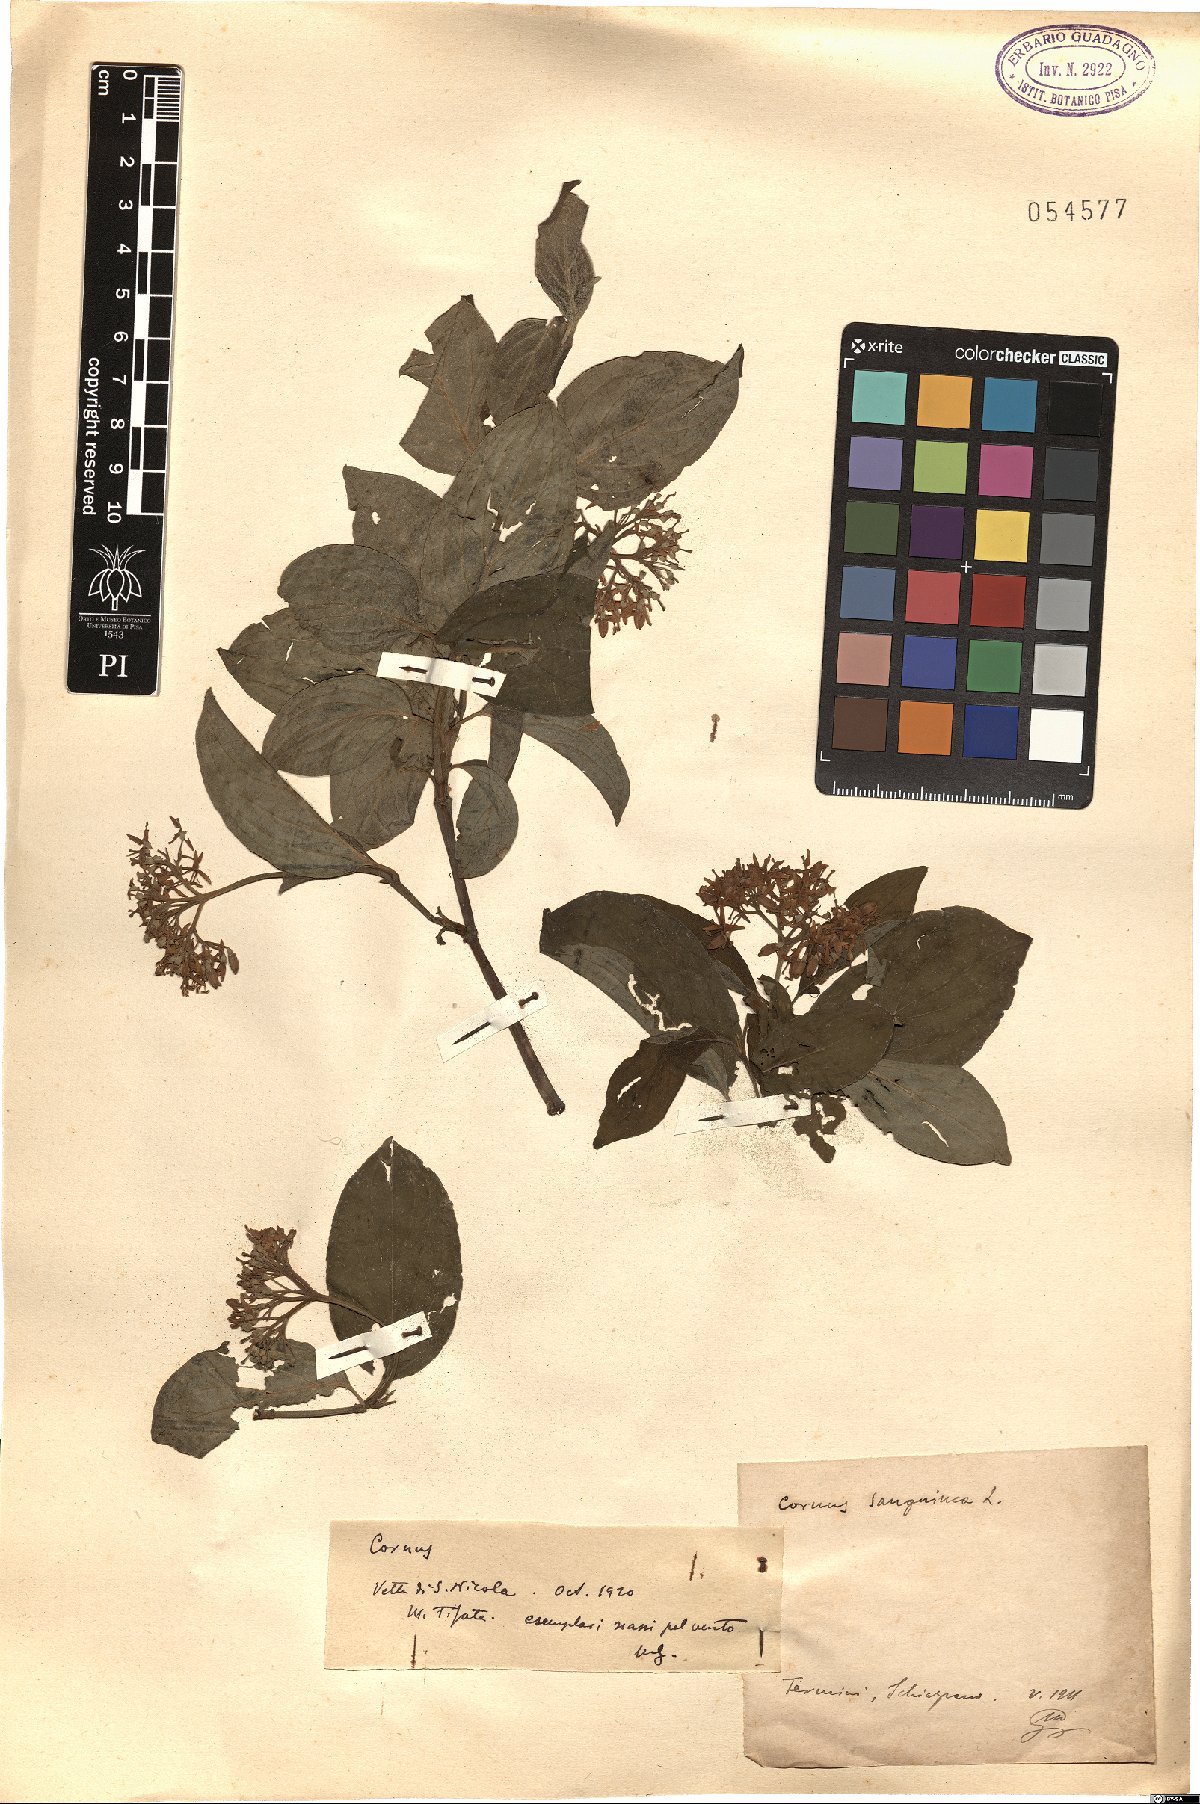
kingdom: Plantae
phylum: Tracheophyta
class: Magnoliopsida
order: Cornales
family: Cornaceae
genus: Cornus
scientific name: Cornus sanguinea
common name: Dogwood
